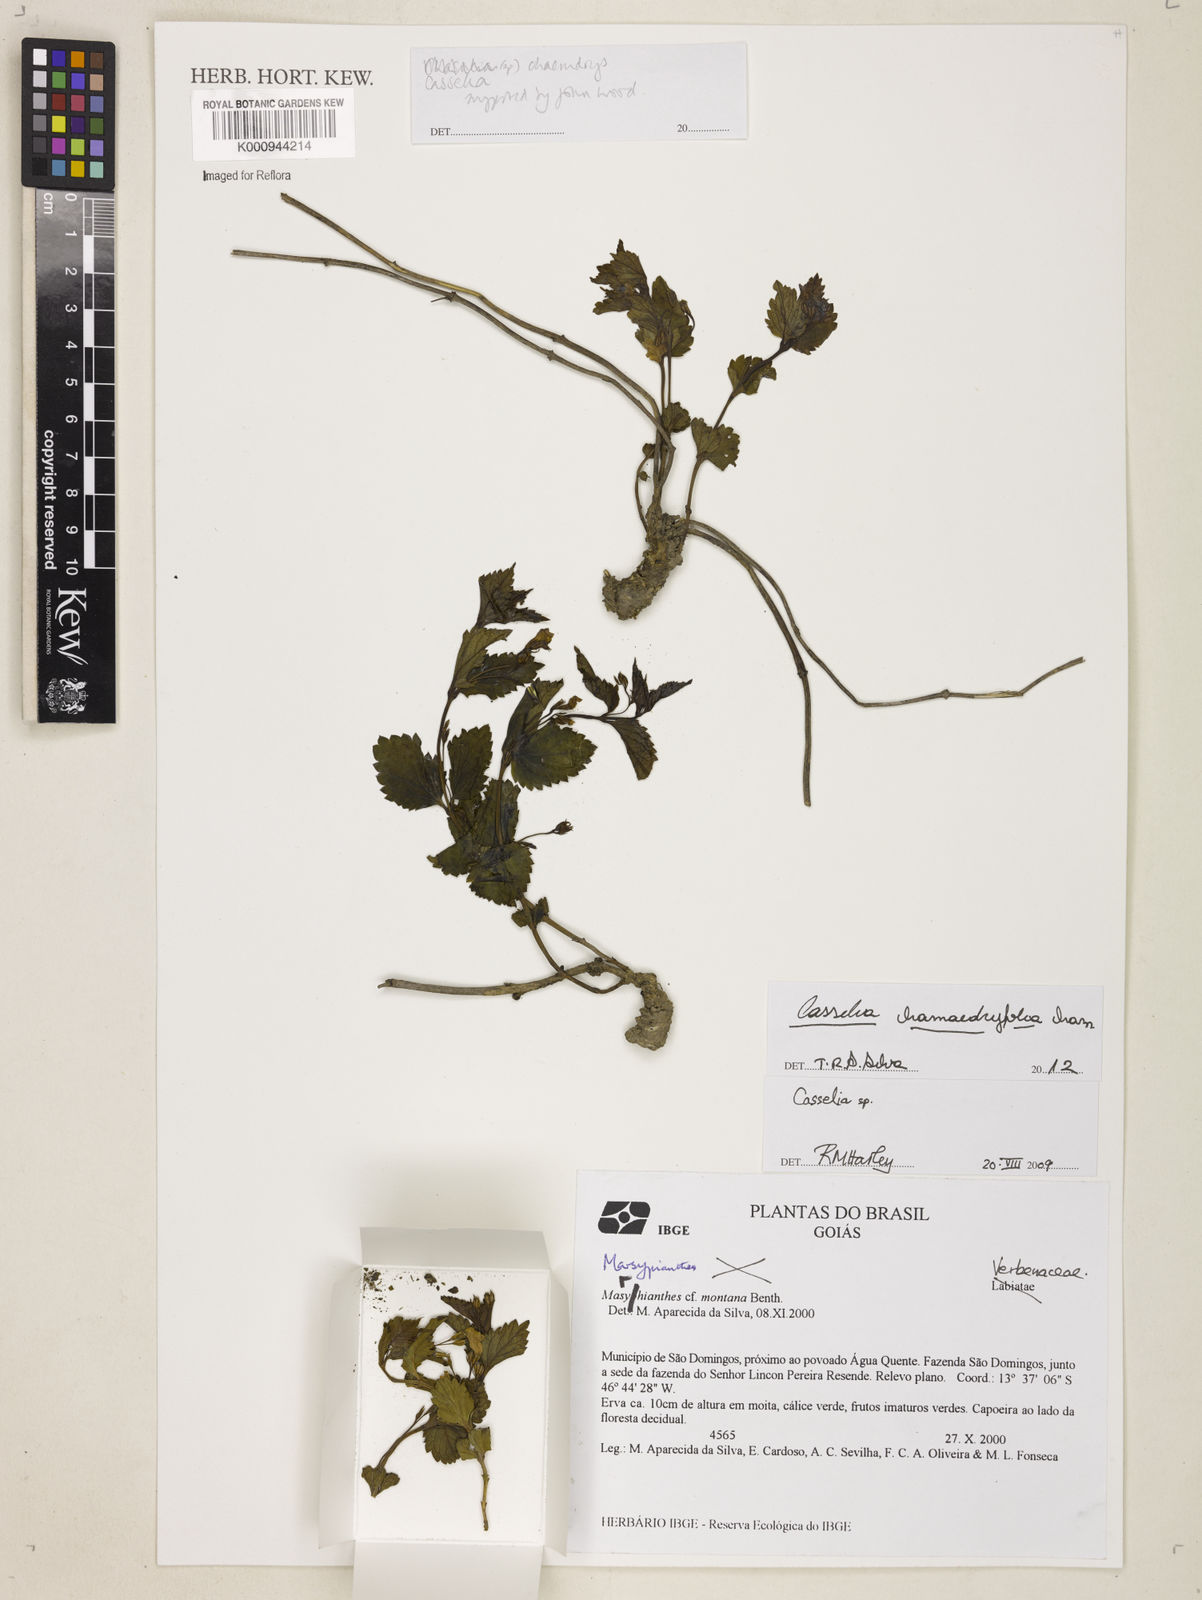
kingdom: Plantae
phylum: Tracheophyta
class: Magnoliopsida
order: Lamiales
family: Verbenaceae
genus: Casselia
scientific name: Casselia chamaedryfolia
